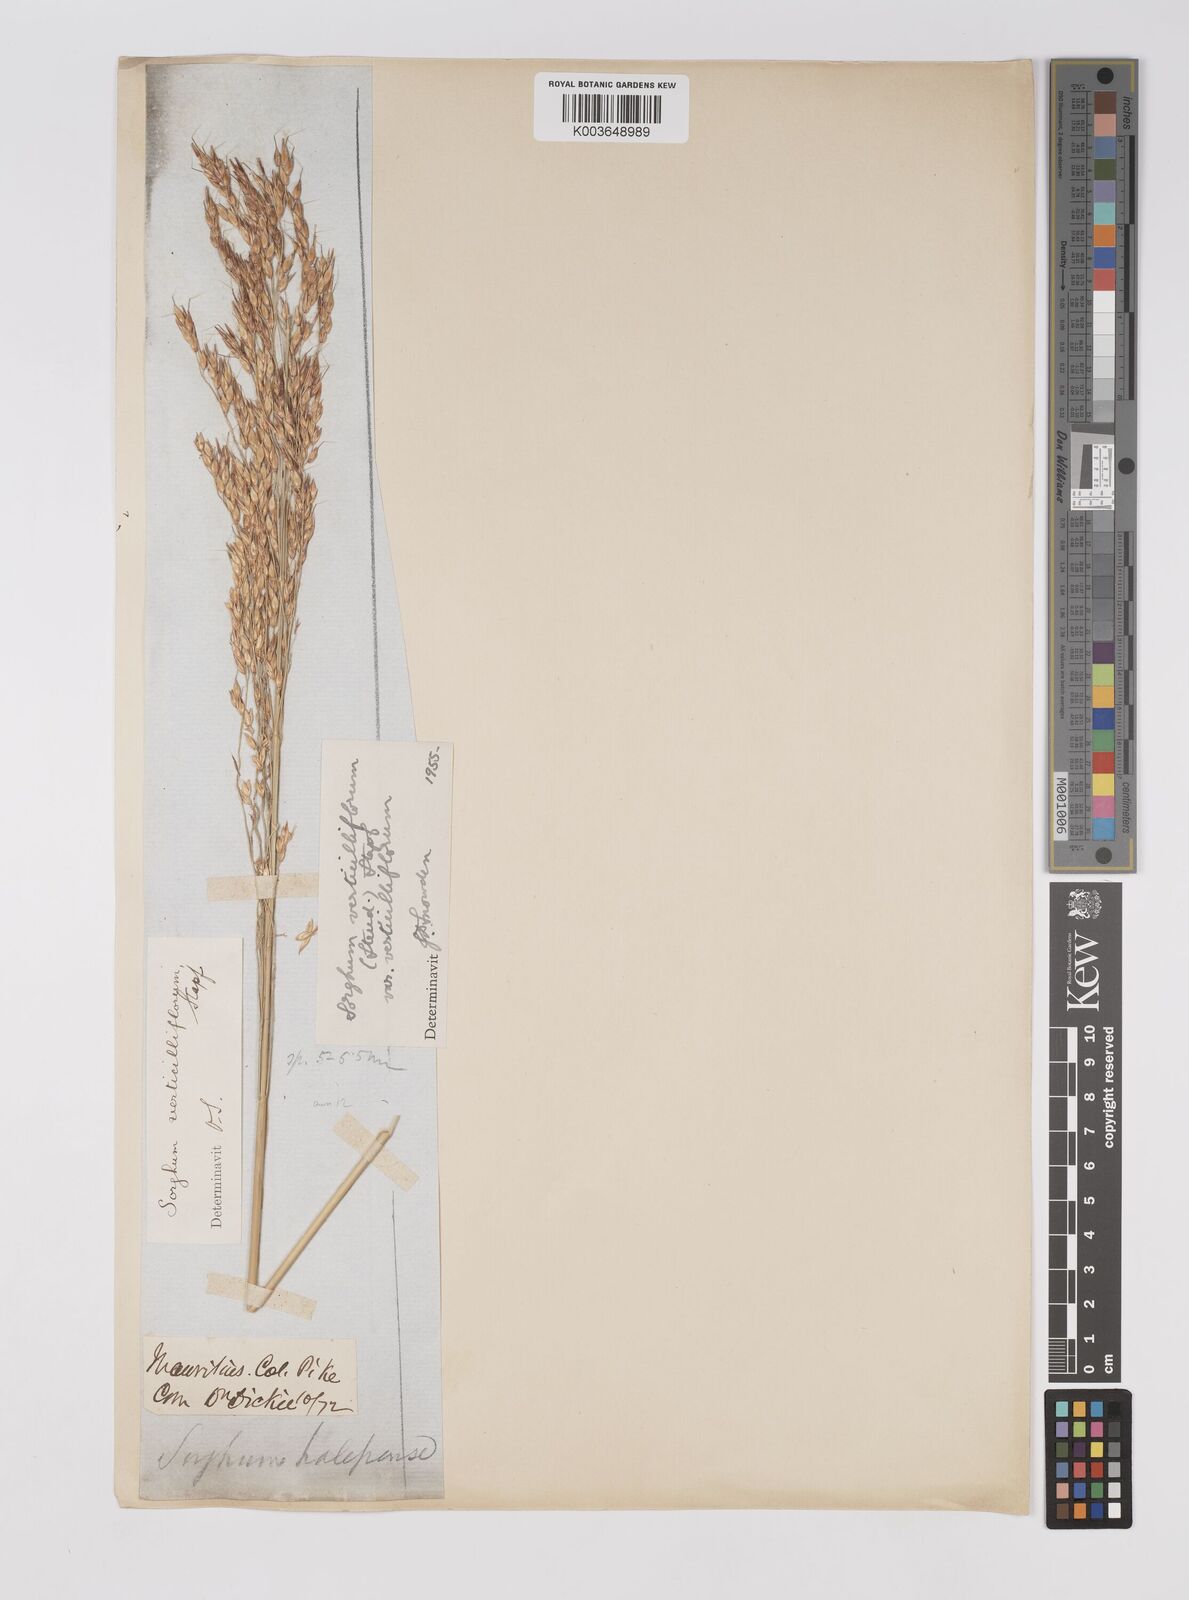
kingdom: Plantae
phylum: Tracheophyta
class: Liliopsida
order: Poales
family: Poaceae
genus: Sorghum
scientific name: Sorghum arundinaceum
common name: Sorghum
